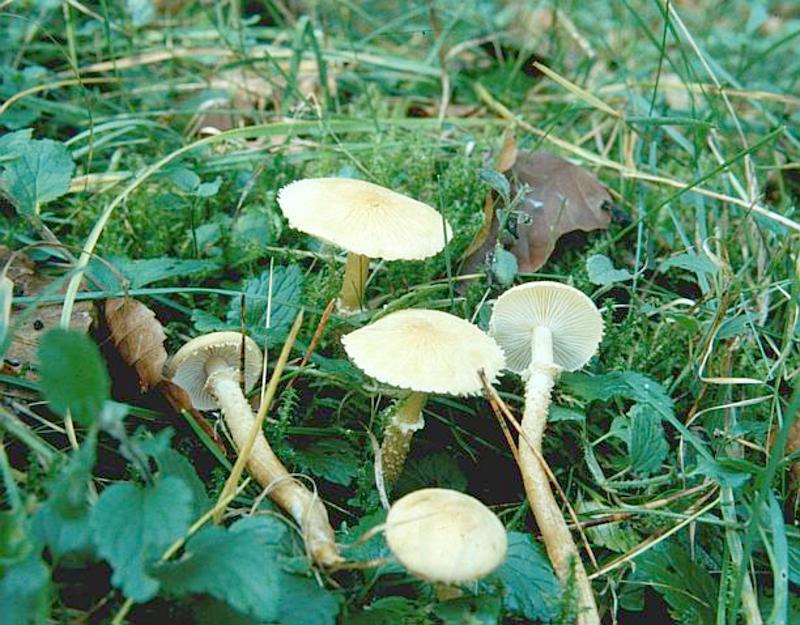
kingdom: Fungi
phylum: Basidiomycota
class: Agaricomycetes
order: Agaricales
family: Tricholomataceae
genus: Cystoderma
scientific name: Cystoderma amianthinum
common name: Earthy powdercap
